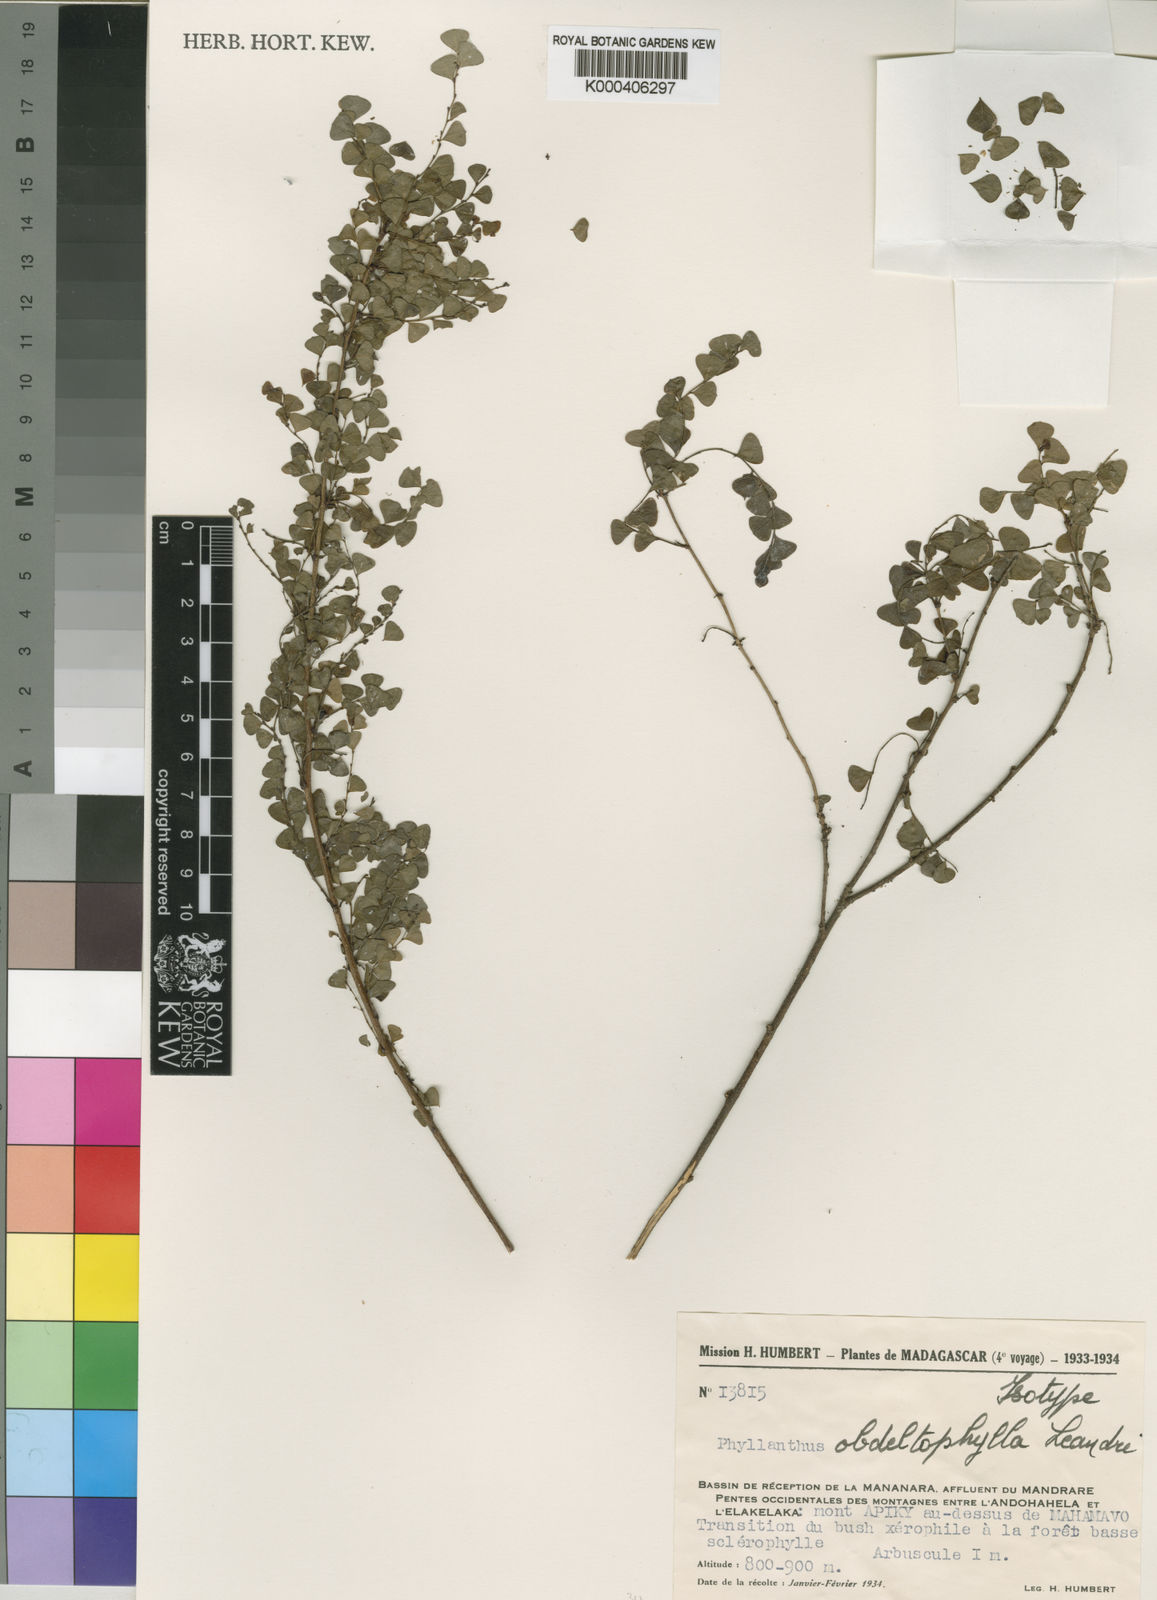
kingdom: Plantae
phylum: Tracheophyta
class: Magnoliopsida
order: Malpighiales
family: Phyllanthaceae
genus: Phyllanthus
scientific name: Phyllanthus obdeltophyllus
